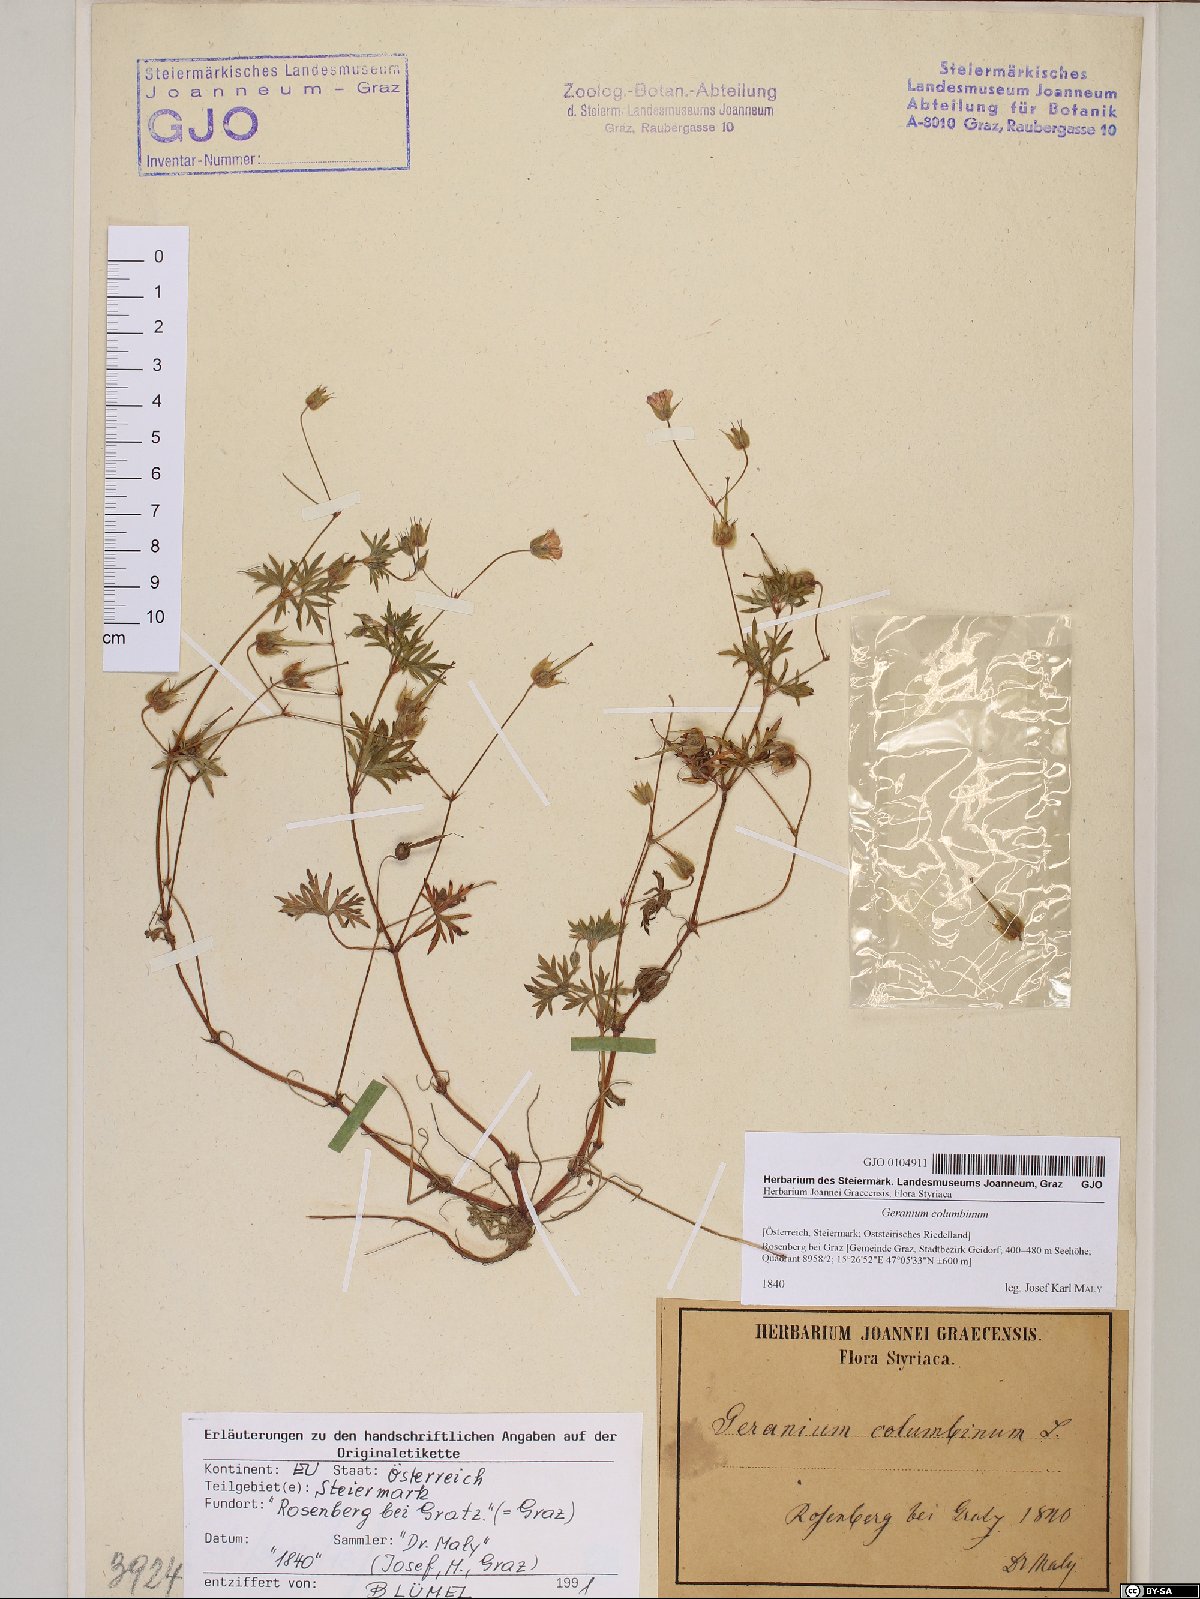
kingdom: Plantae
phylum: Tracheophyta
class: Magnoliopsida
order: Geraniales
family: Geraniaceae
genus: Geranium
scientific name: Geranium columbinum
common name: Long-stalked crane's-bill
